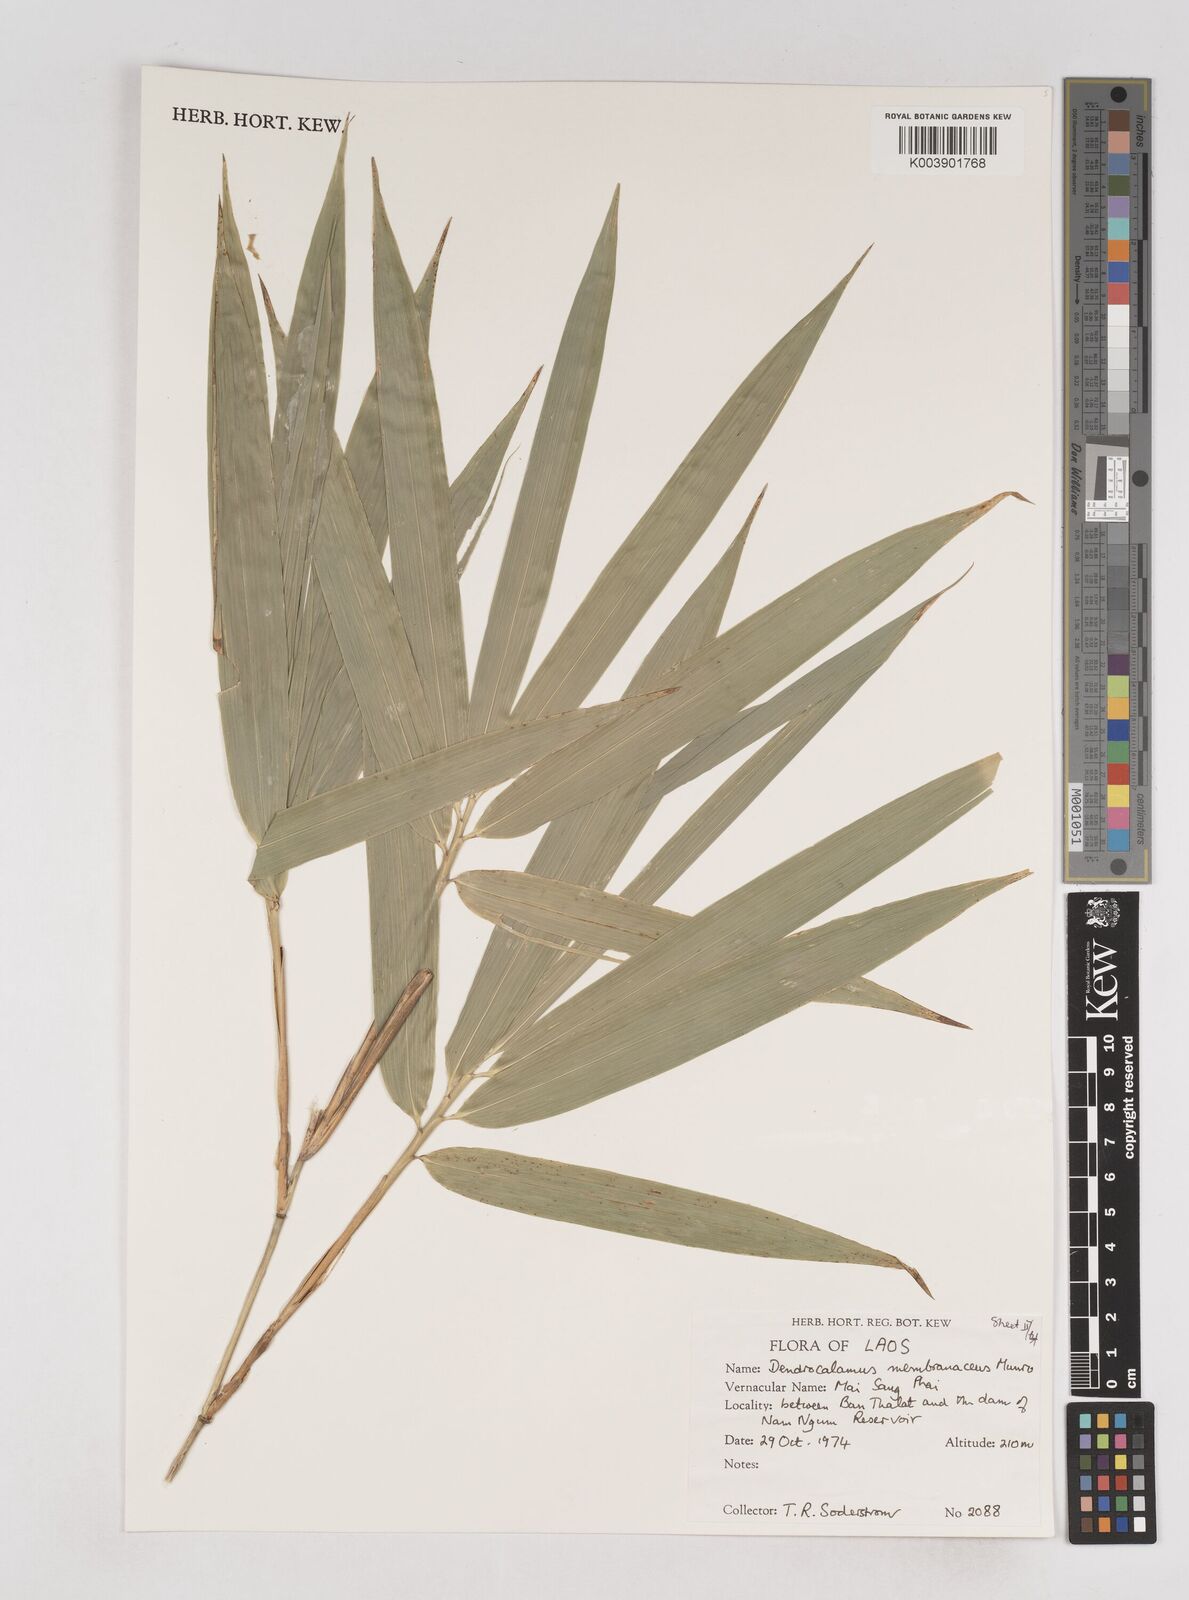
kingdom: Plantae
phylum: Tracheophyta
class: Liliopsida
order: Poales
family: Poaceae
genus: Schizostachyum
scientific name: Schizostachyum
